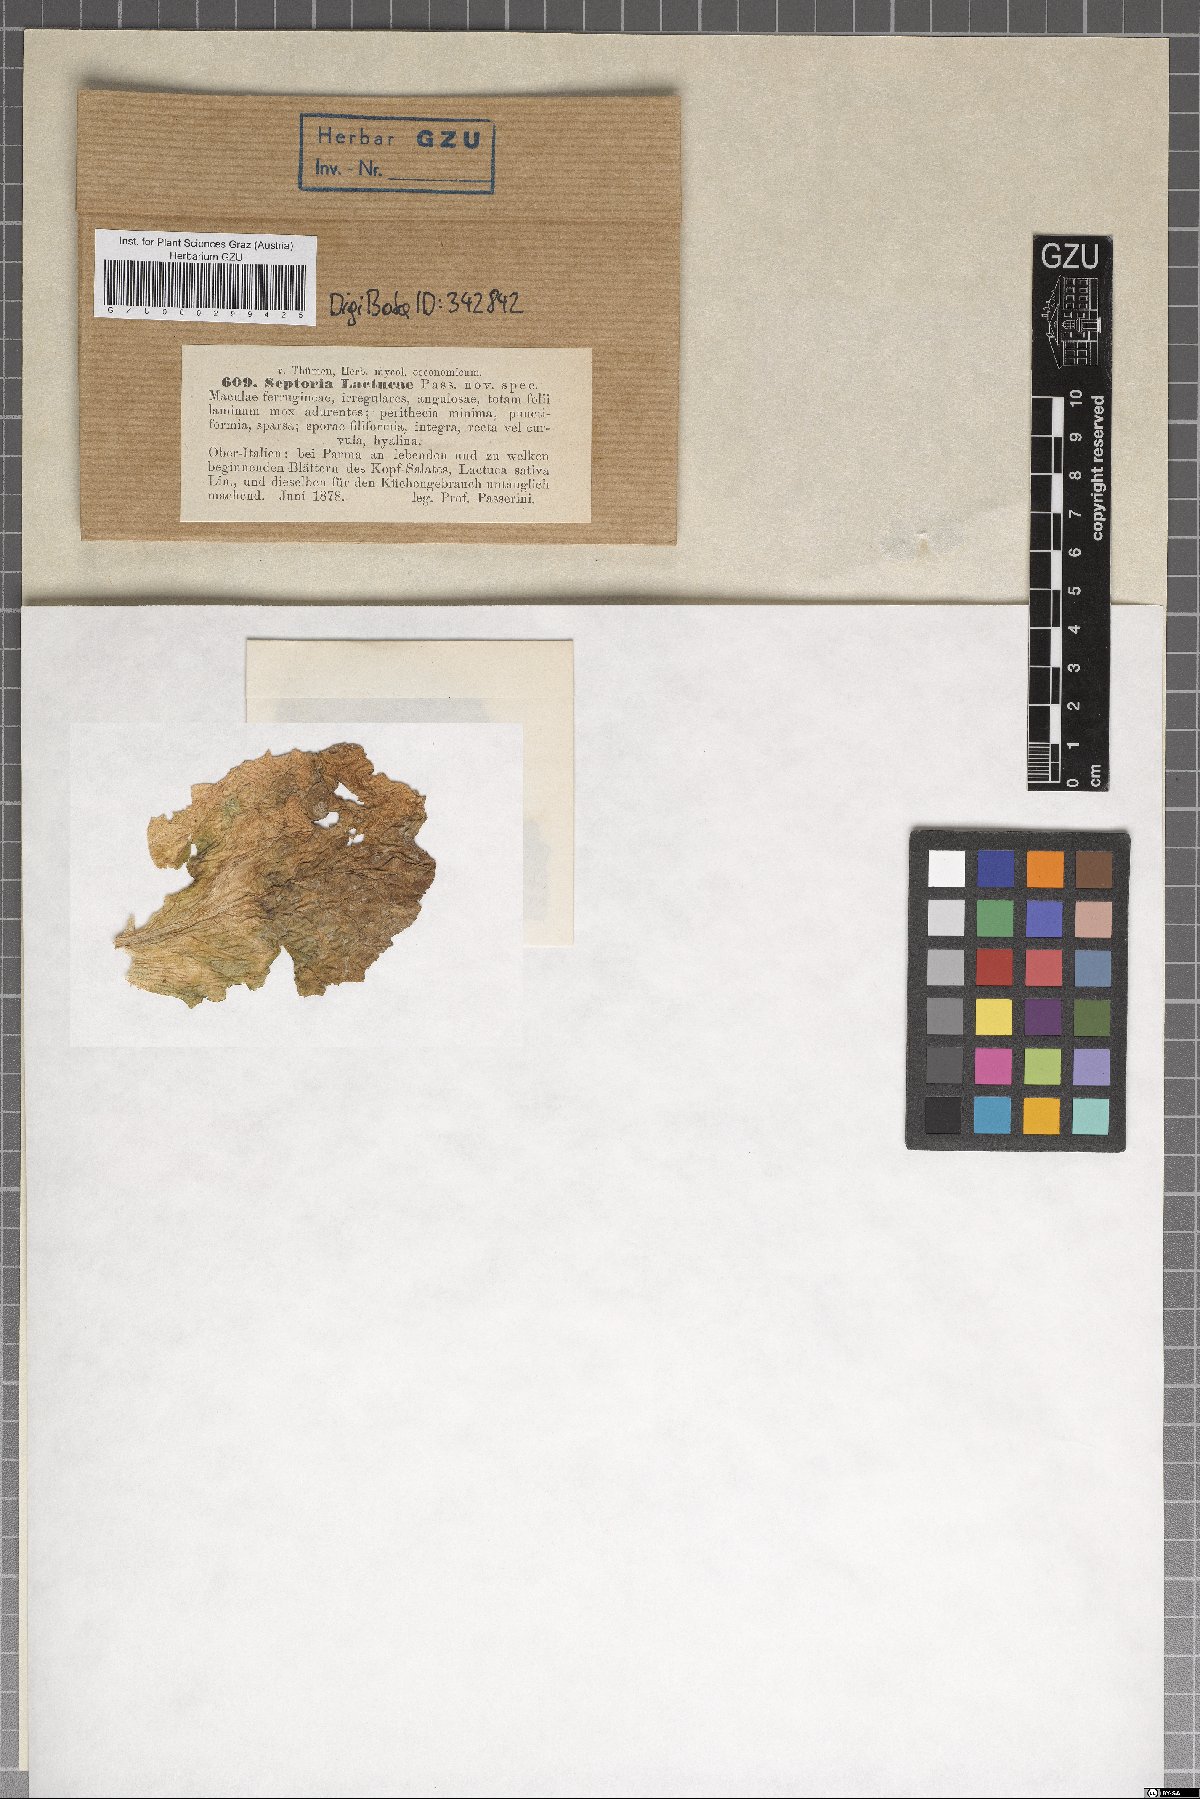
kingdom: Fungi
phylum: Ascomycota
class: Dothideomycetes
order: Mycosphaerellales
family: Mycosphaerellaceae
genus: Septoria
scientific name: Septoria lactucae
